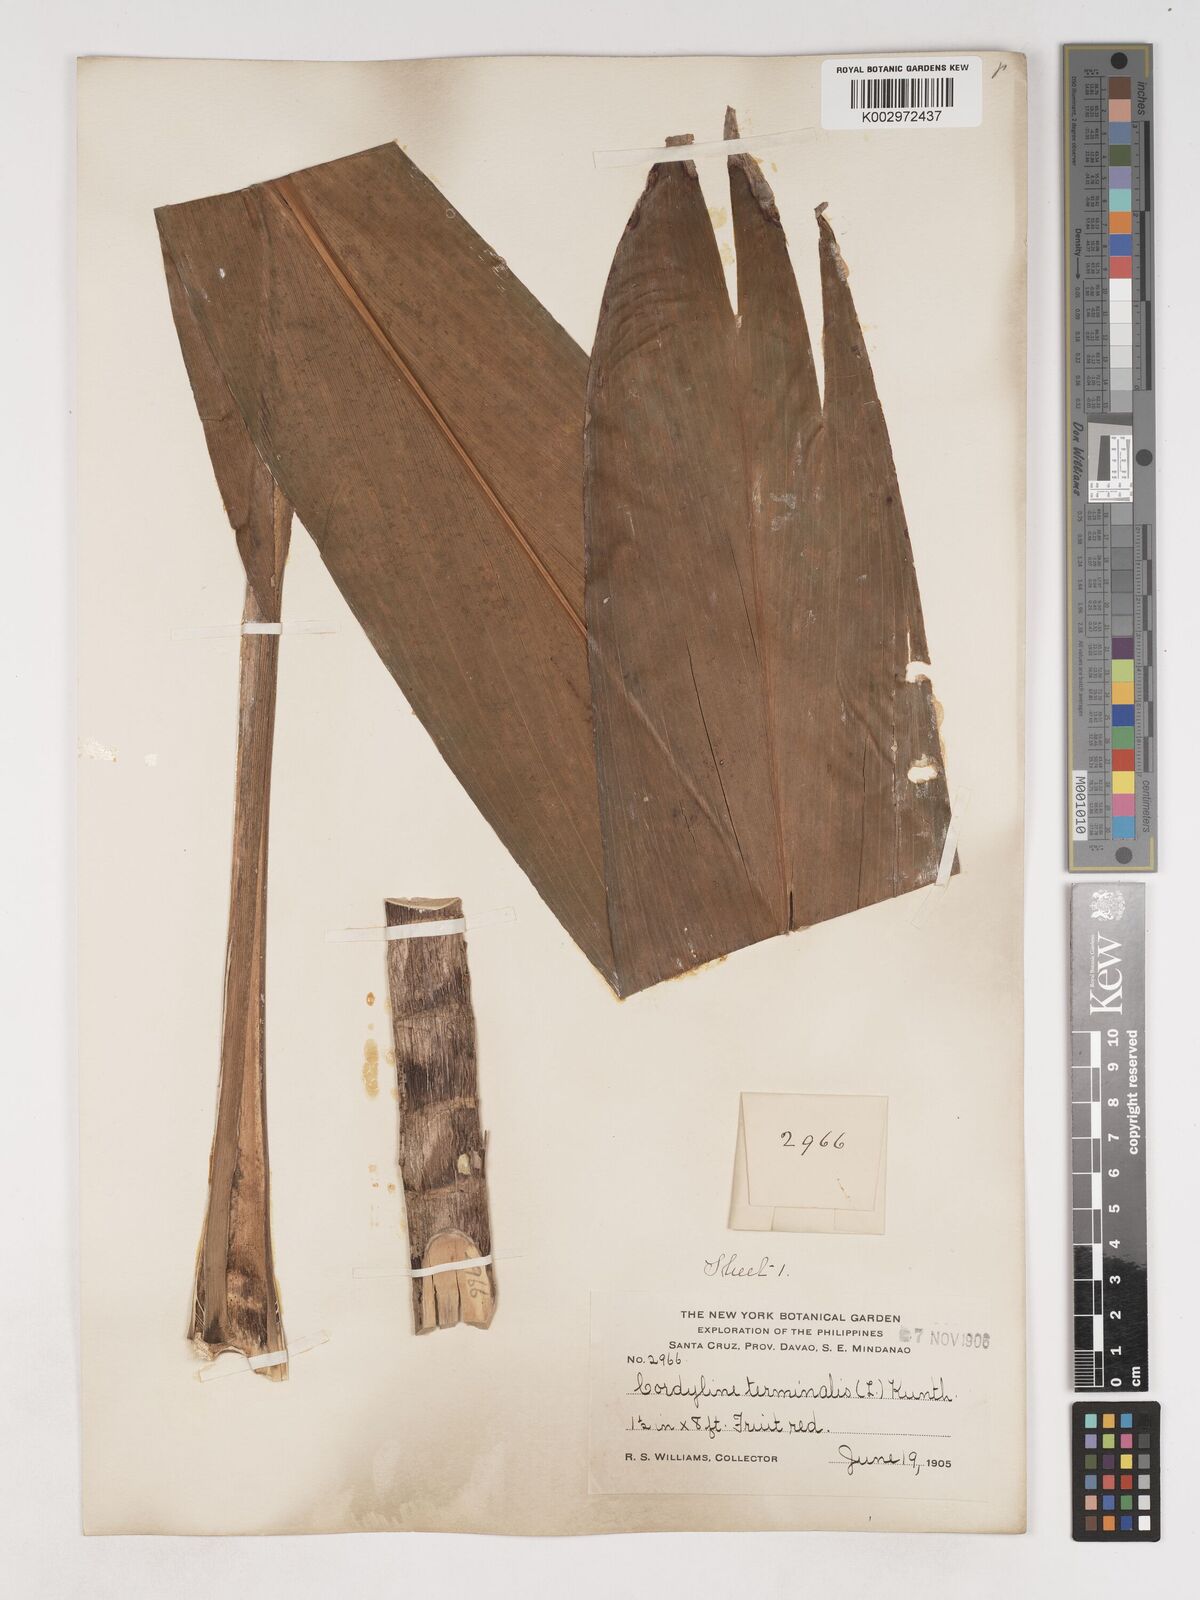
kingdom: Plantae
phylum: Tracheophyta
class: Liliopsida
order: Asparagales
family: Asparagaceae
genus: Cordyline
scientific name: Cordyline fruticosa
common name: Good-luck-plant
